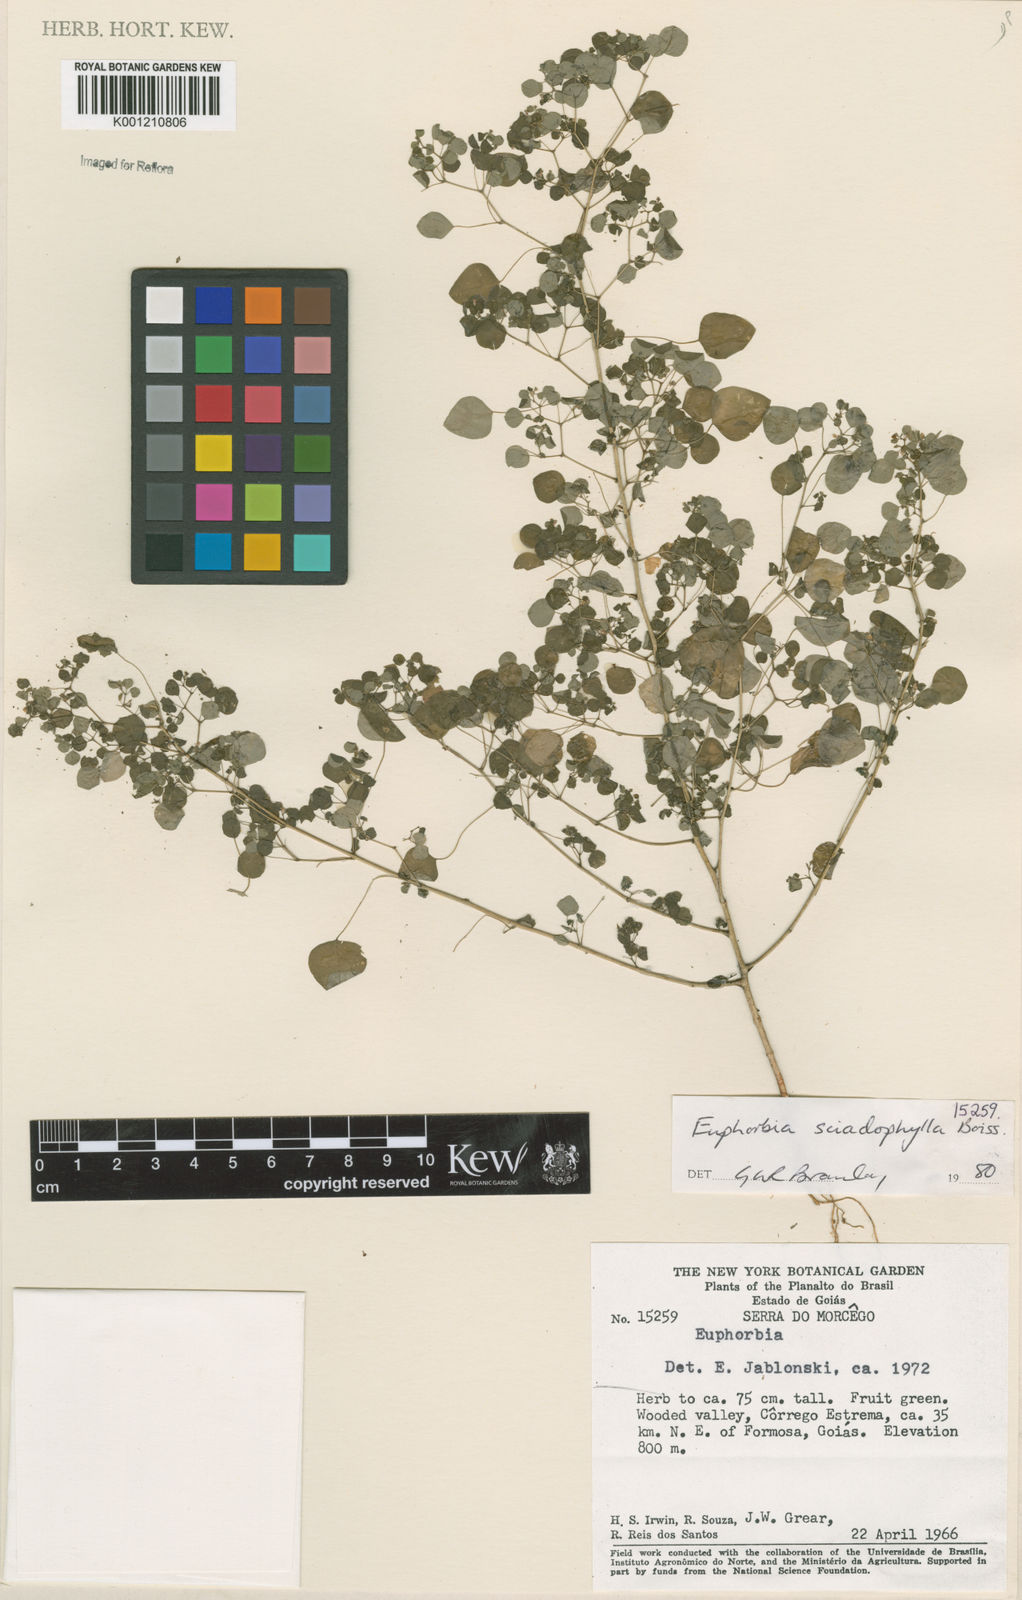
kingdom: Plantae
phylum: Tracheophyta
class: Magnoliopsida
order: Malpighiales
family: Euphorbiaceae
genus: Euphorbia
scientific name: Euphorbia sciadophila
